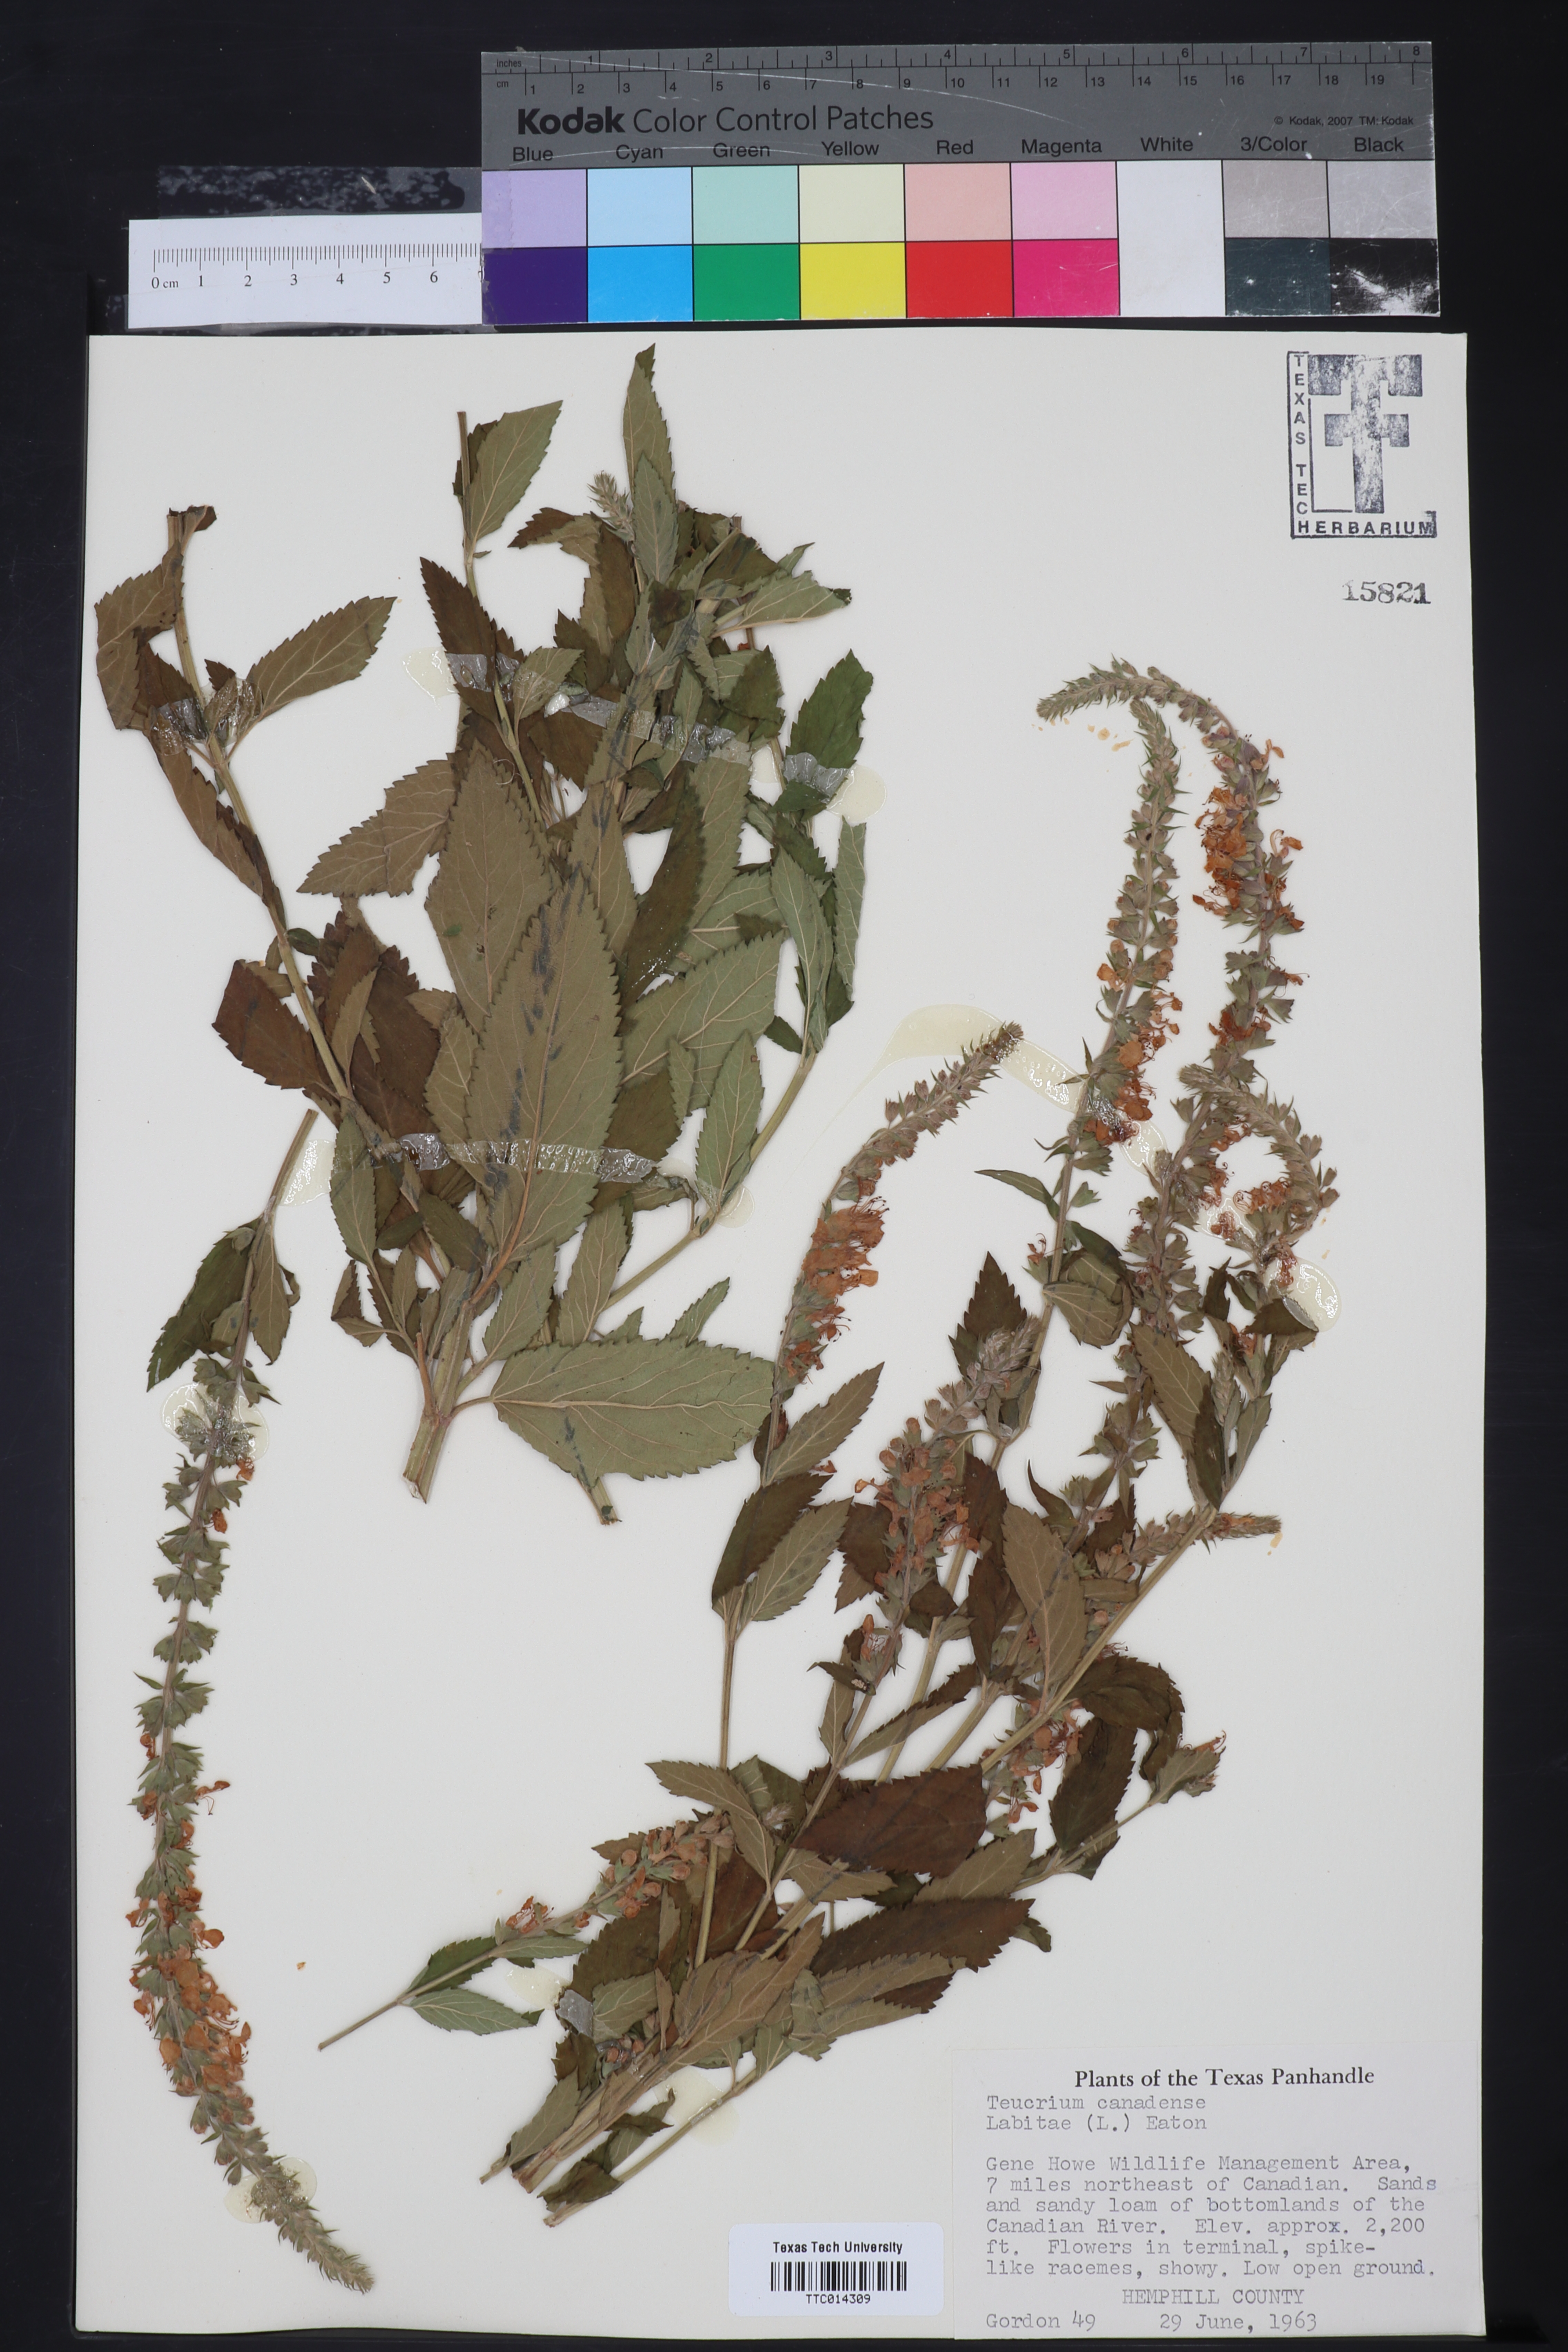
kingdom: Plantae
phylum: Tracheophyta
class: Magnoliopsida
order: Lamiales
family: Lamiaceae
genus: Teucrium
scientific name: Teucrium canadense
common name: American germander
